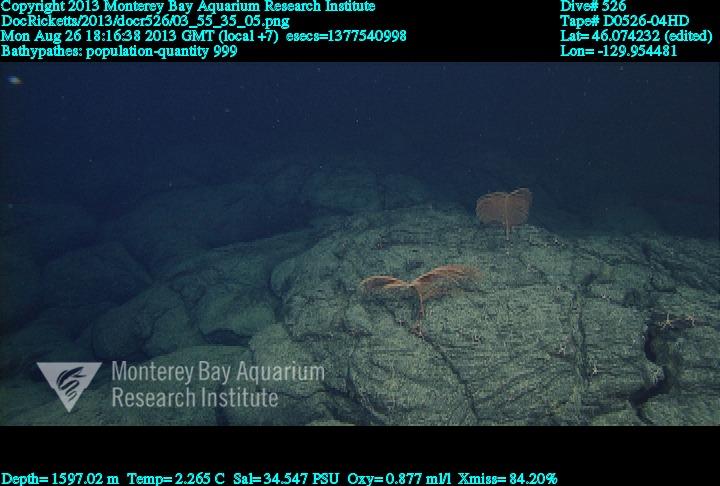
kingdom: Animalia
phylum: Cnidaria
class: Anthozoa
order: Antipatharia
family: Schizopathidae
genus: Bathypathes
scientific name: Bathypathes
